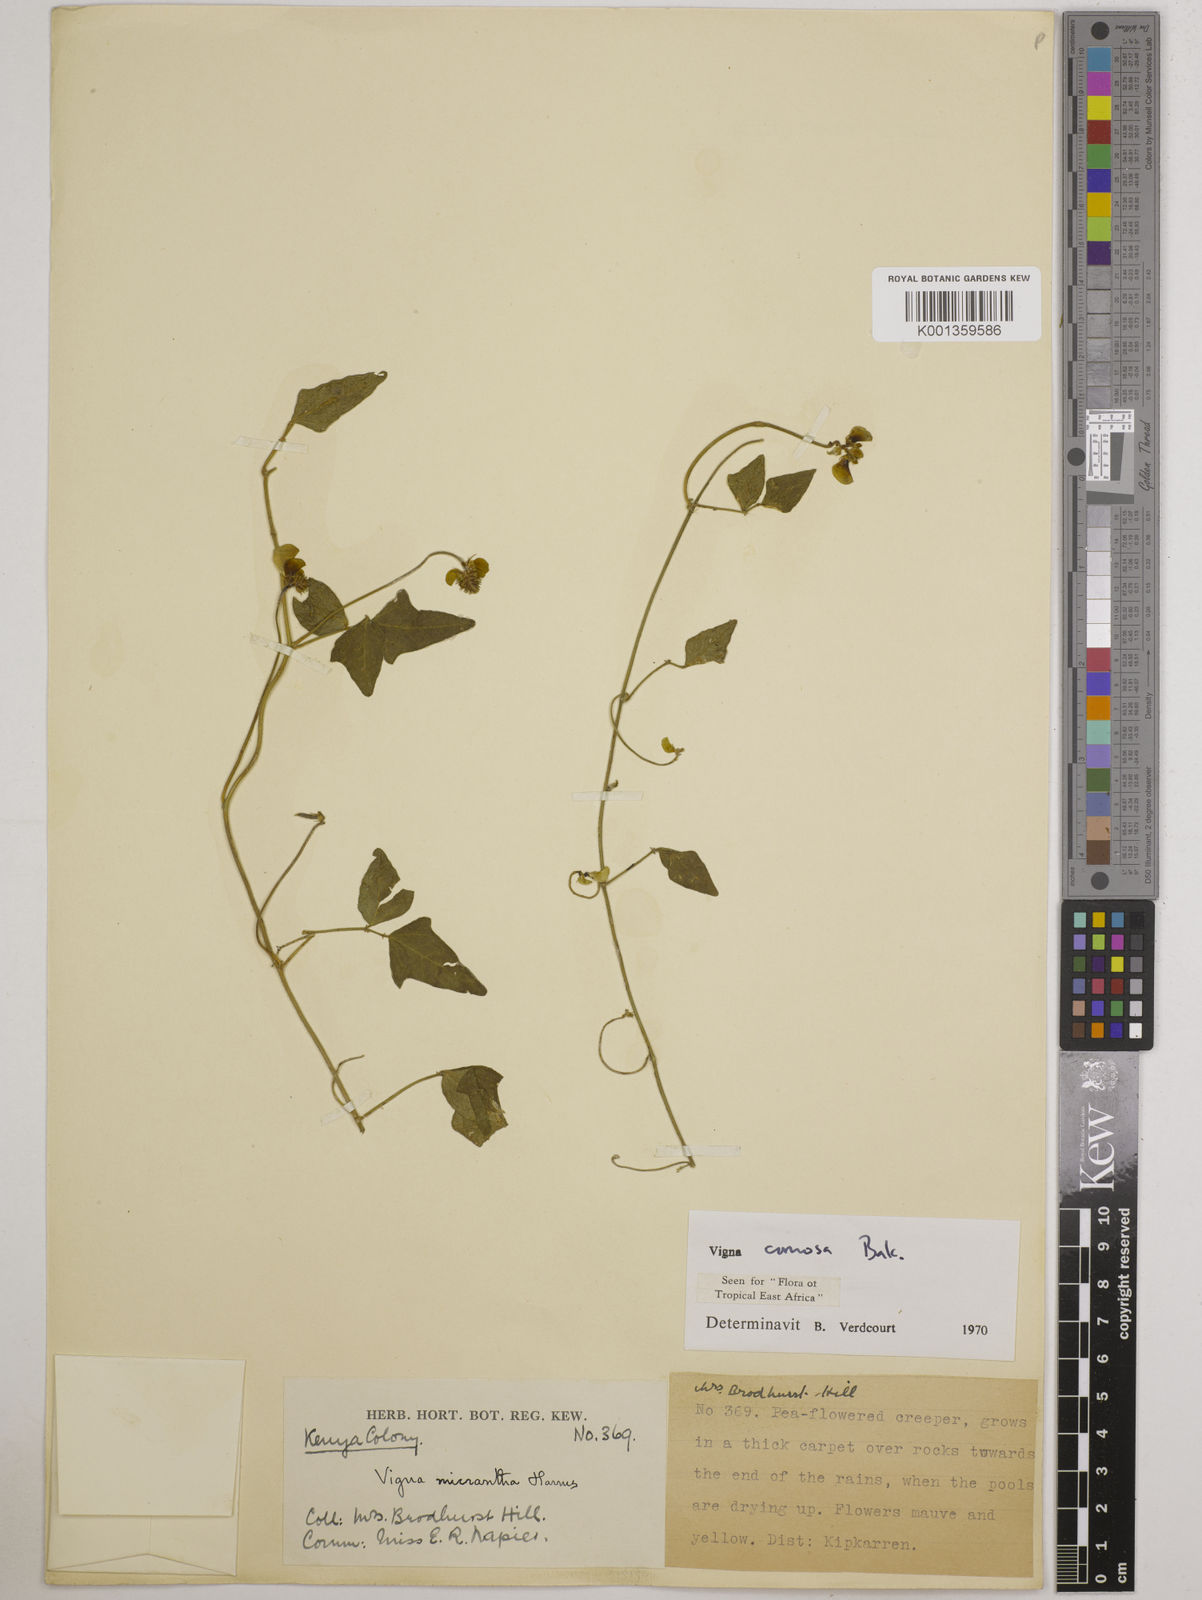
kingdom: Plantae
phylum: Tracheophyta
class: Magnoliopsida
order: Fabales
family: Fabaceae
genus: Vigna
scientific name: Vigna comosa
